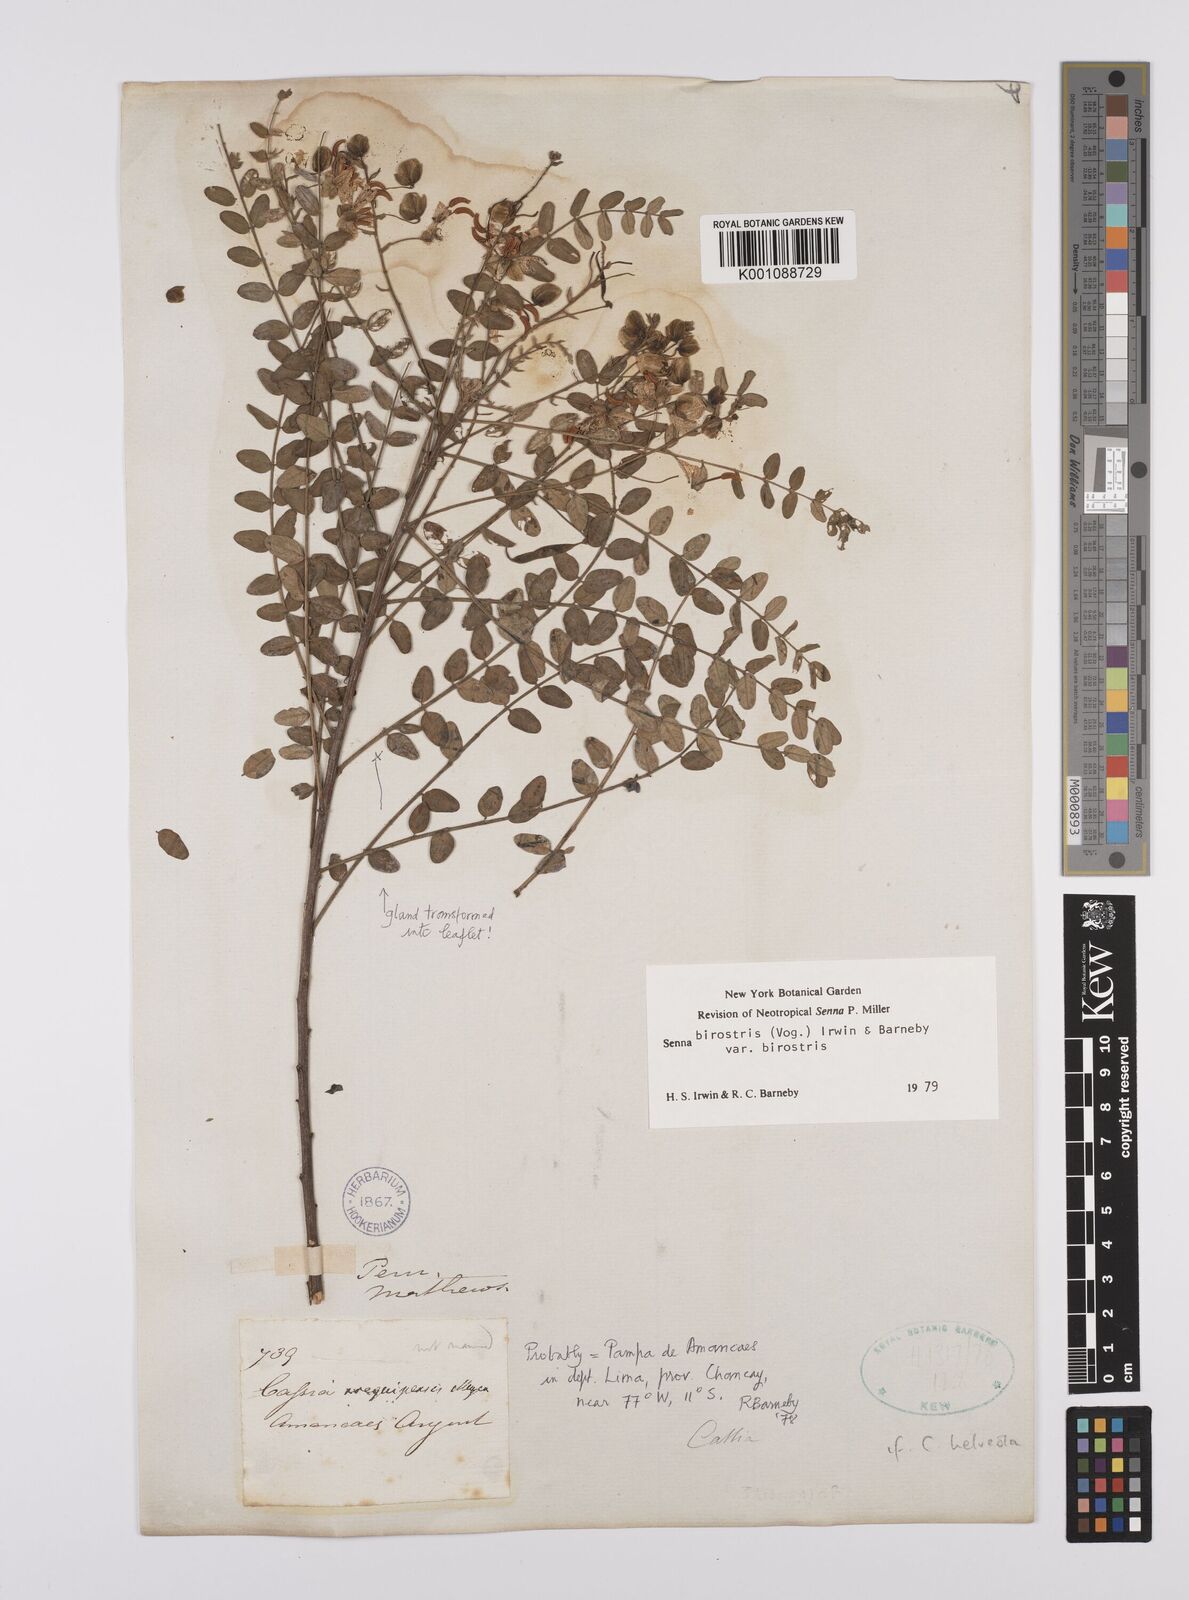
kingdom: Plantae
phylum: Tracheophyta
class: Magnoliopsida
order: Fabales
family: Fabaceae
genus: Senna
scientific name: Senna birostris
